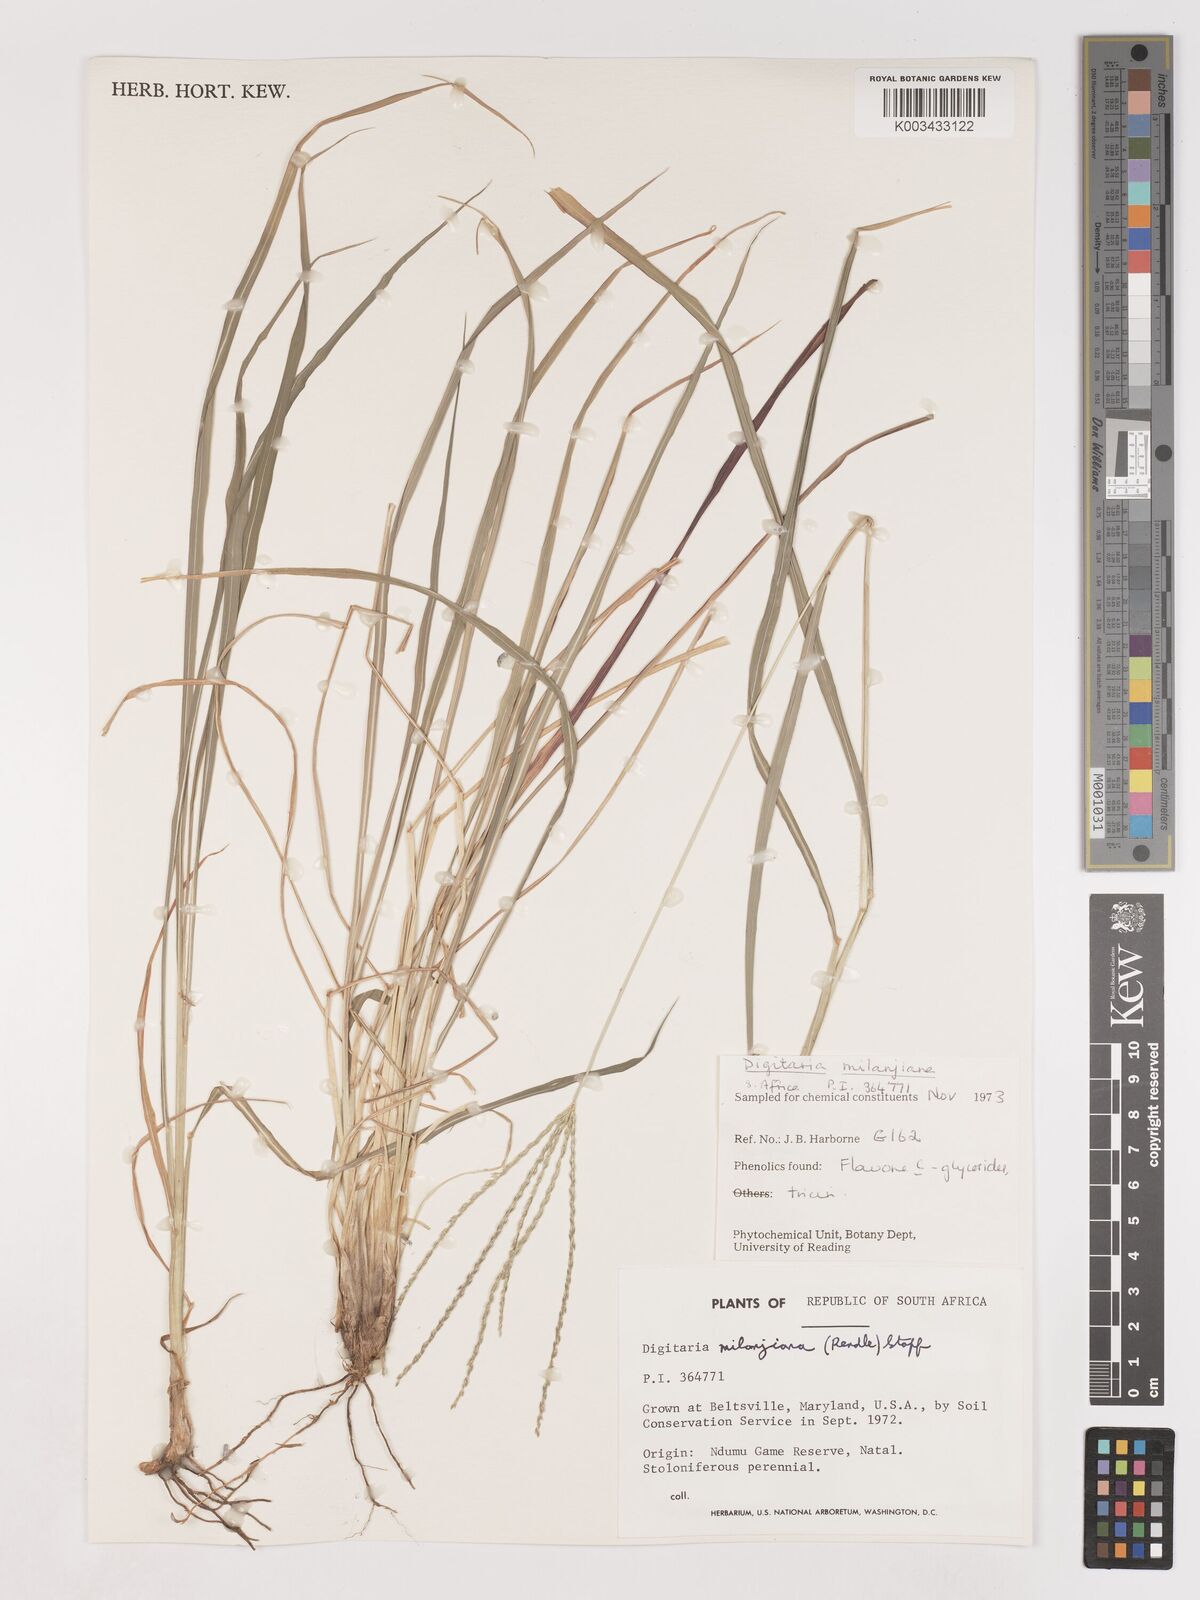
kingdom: Plantae
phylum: Tracheophyta
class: Liliopsida
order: Poales
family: Poaceae
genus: Digitaria
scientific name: Digitaria milanjiana
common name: Madagascar crabgrass
